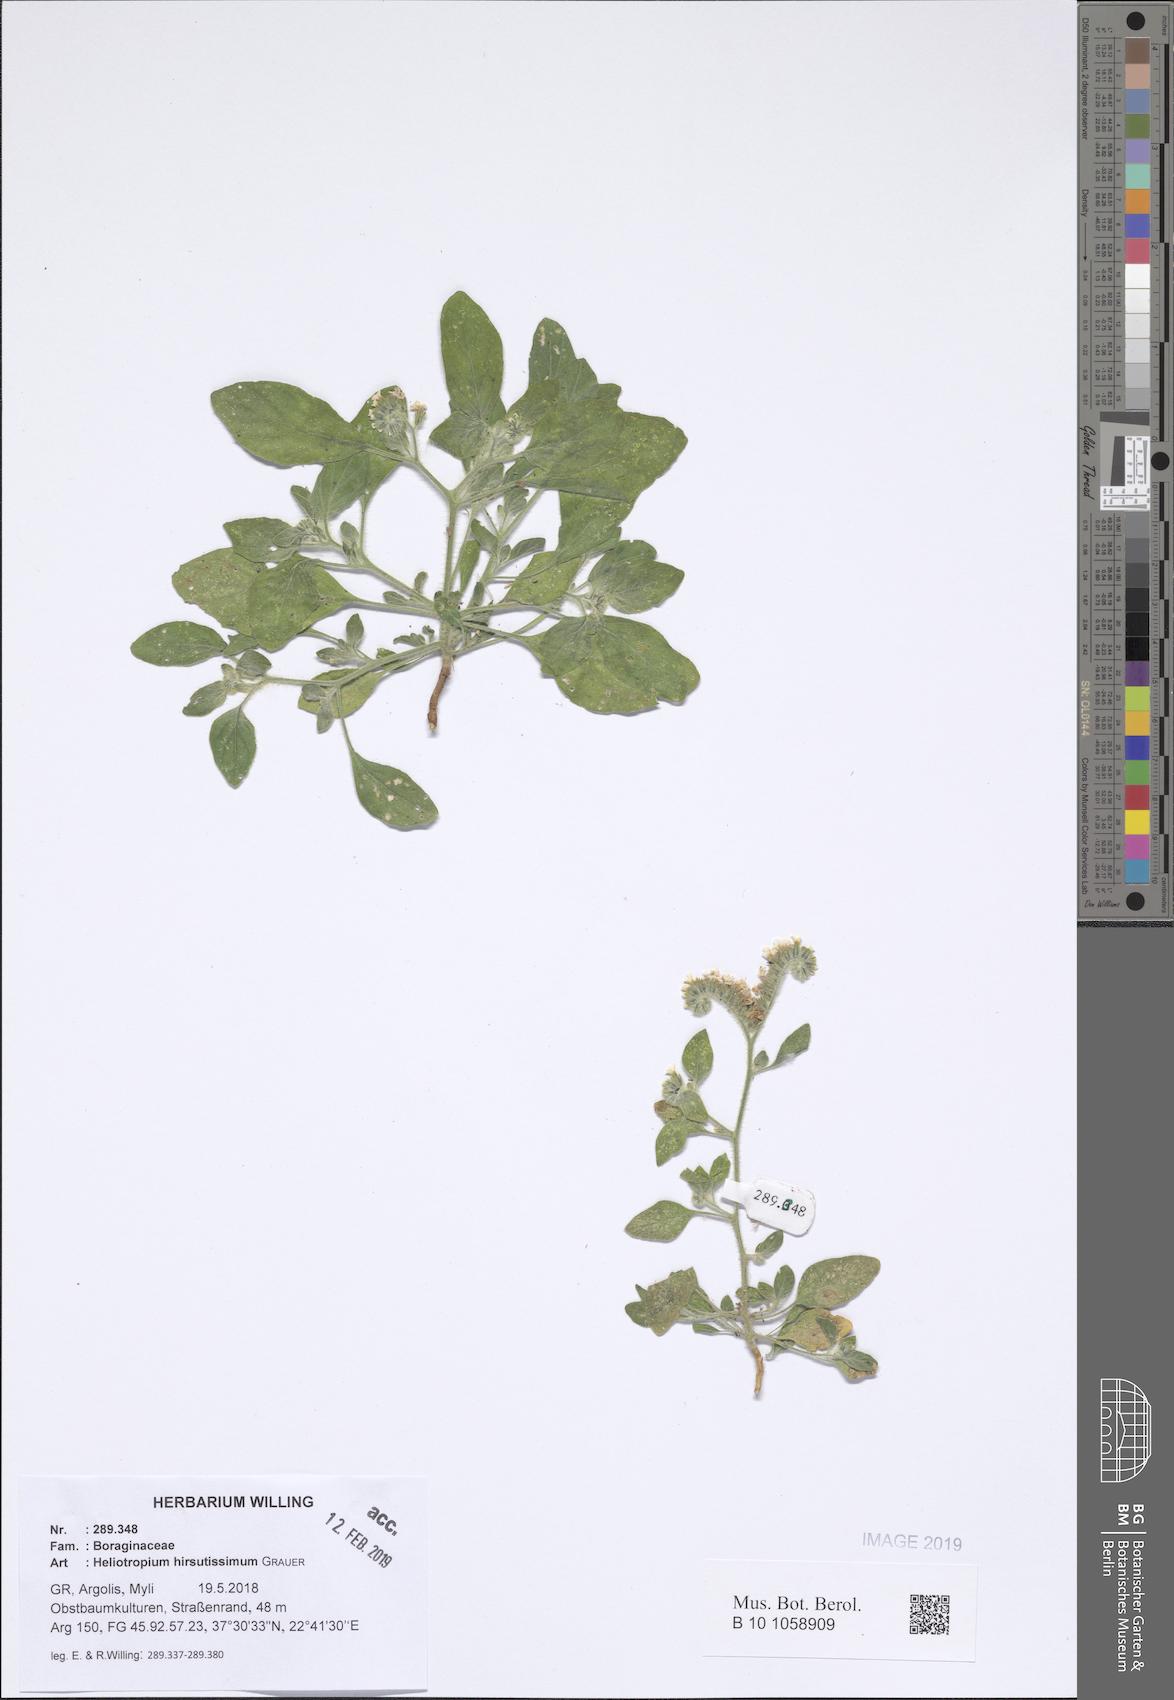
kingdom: Plantae
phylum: Tracheophyta
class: Magnoliopsida
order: Boraginales
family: Heliotropiaceae
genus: Heliotropium
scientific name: Heliotropium hirsutissimum
